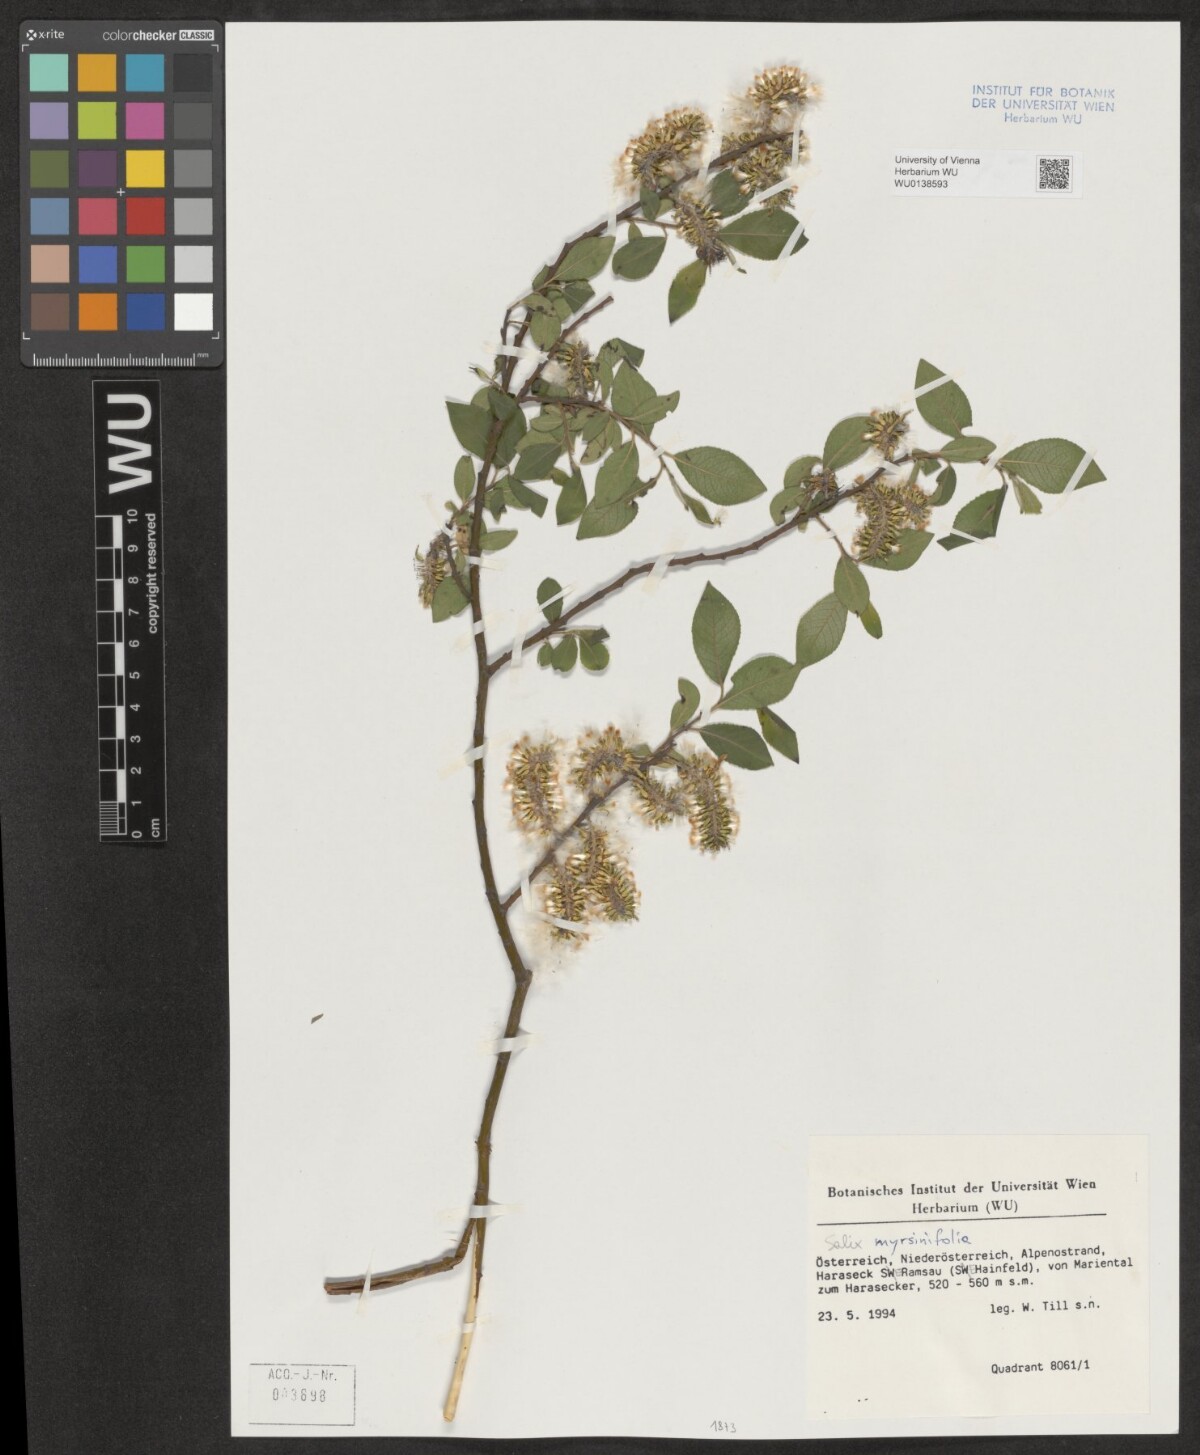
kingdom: Plantae
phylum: Tracheophyta
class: Magnoliopsida
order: Malpighiales
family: Salicaceae
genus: Salix
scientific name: Salix myrsinifolia
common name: Dark-leaved willow
